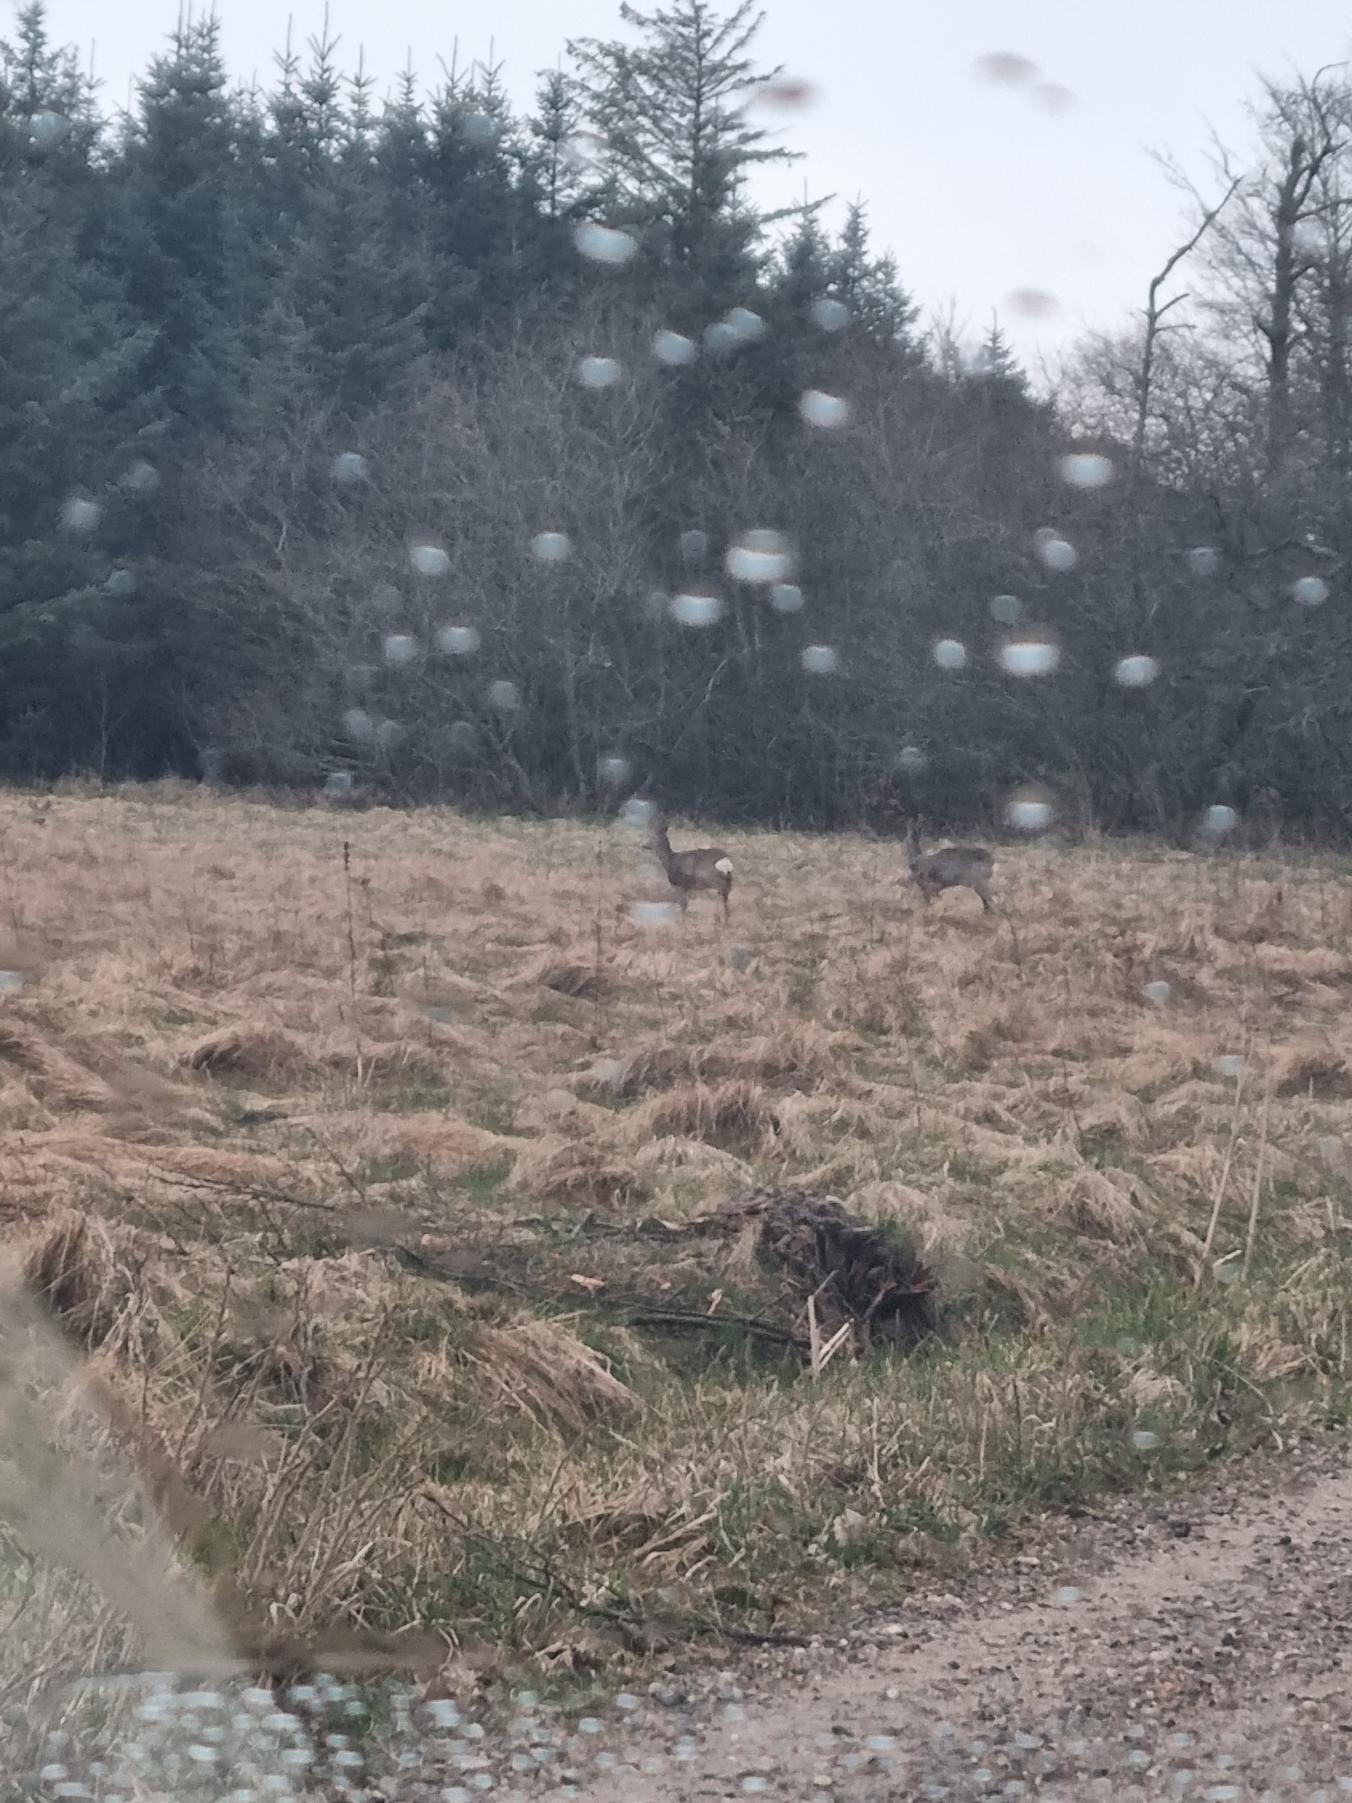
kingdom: Animalia
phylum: Chordata
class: Mammalia
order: Artiodactyla
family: Cervidae
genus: Capreolus
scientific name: Capreolus capreolus
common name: Rådyr
